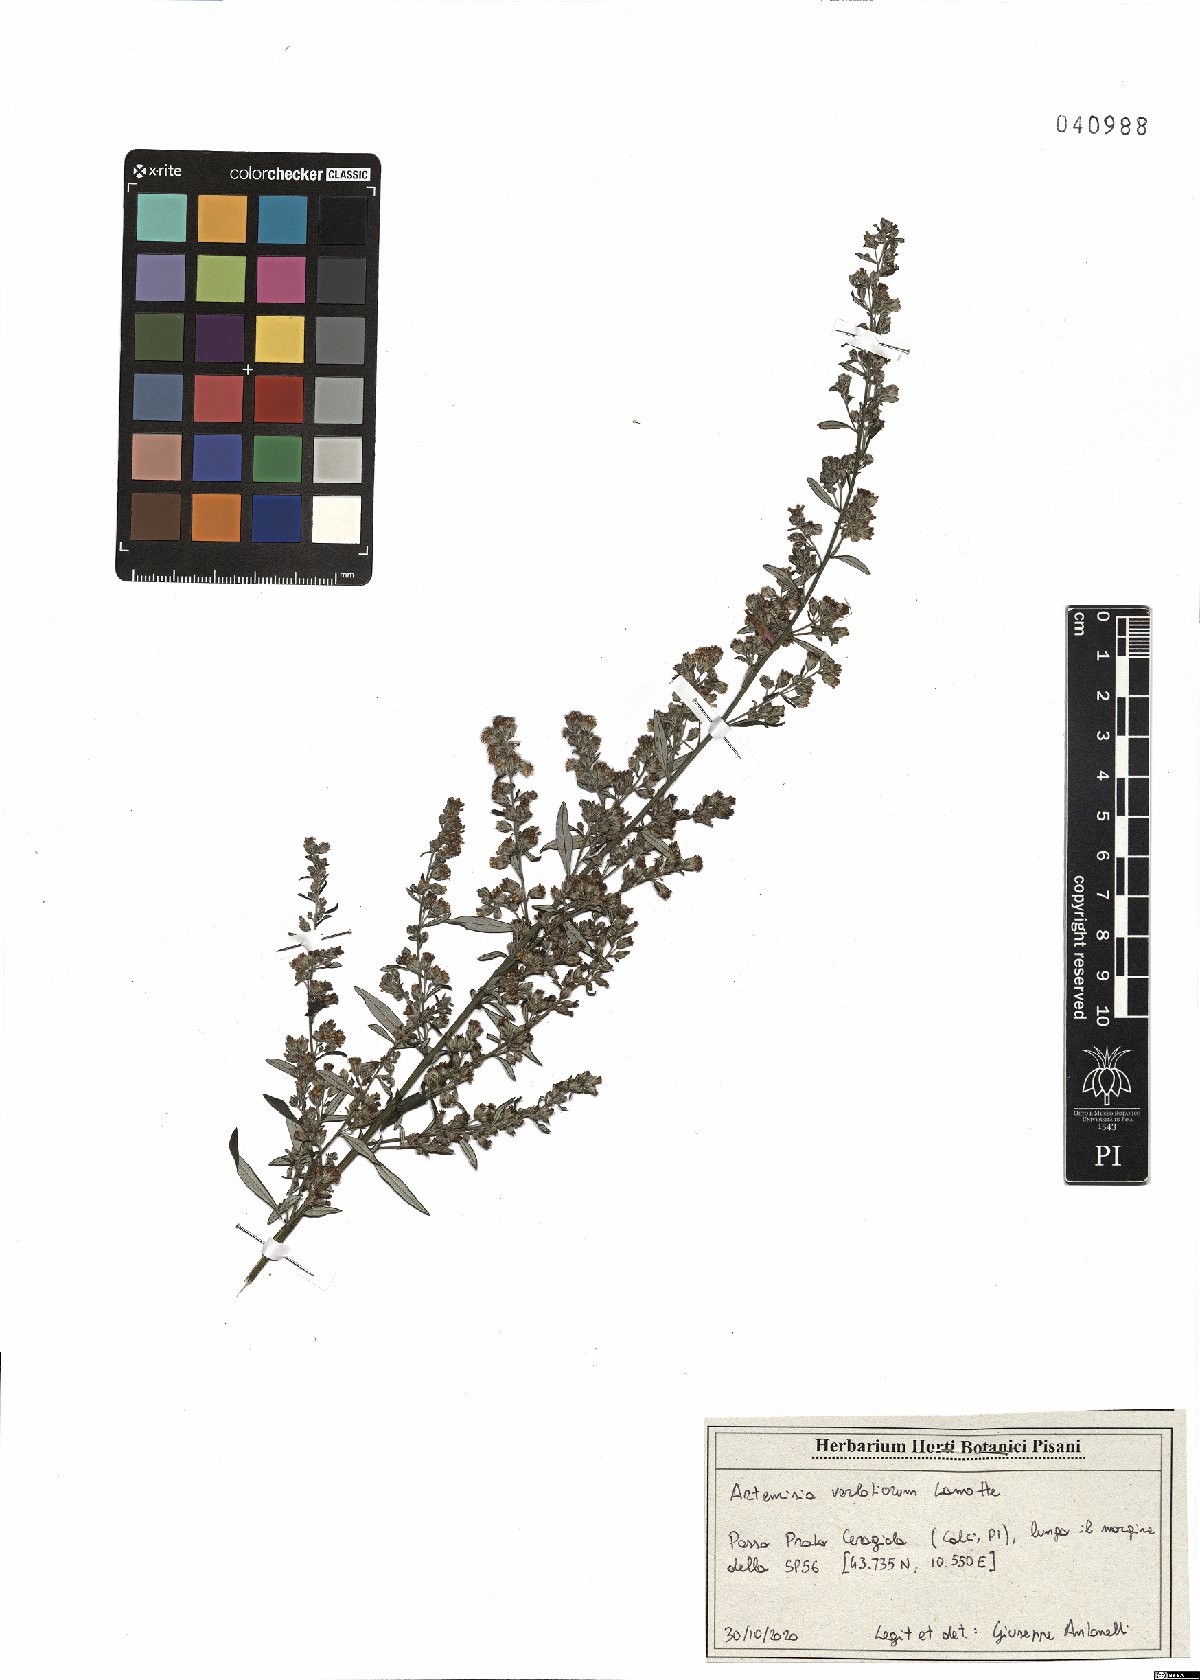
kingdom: Plantae
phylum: Tracheophyta
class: Magnoliopsida
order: Asterales
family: Asteraceae
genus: Artemisia
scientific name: Artemisia verlotiorum
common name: Chinese mugwort
